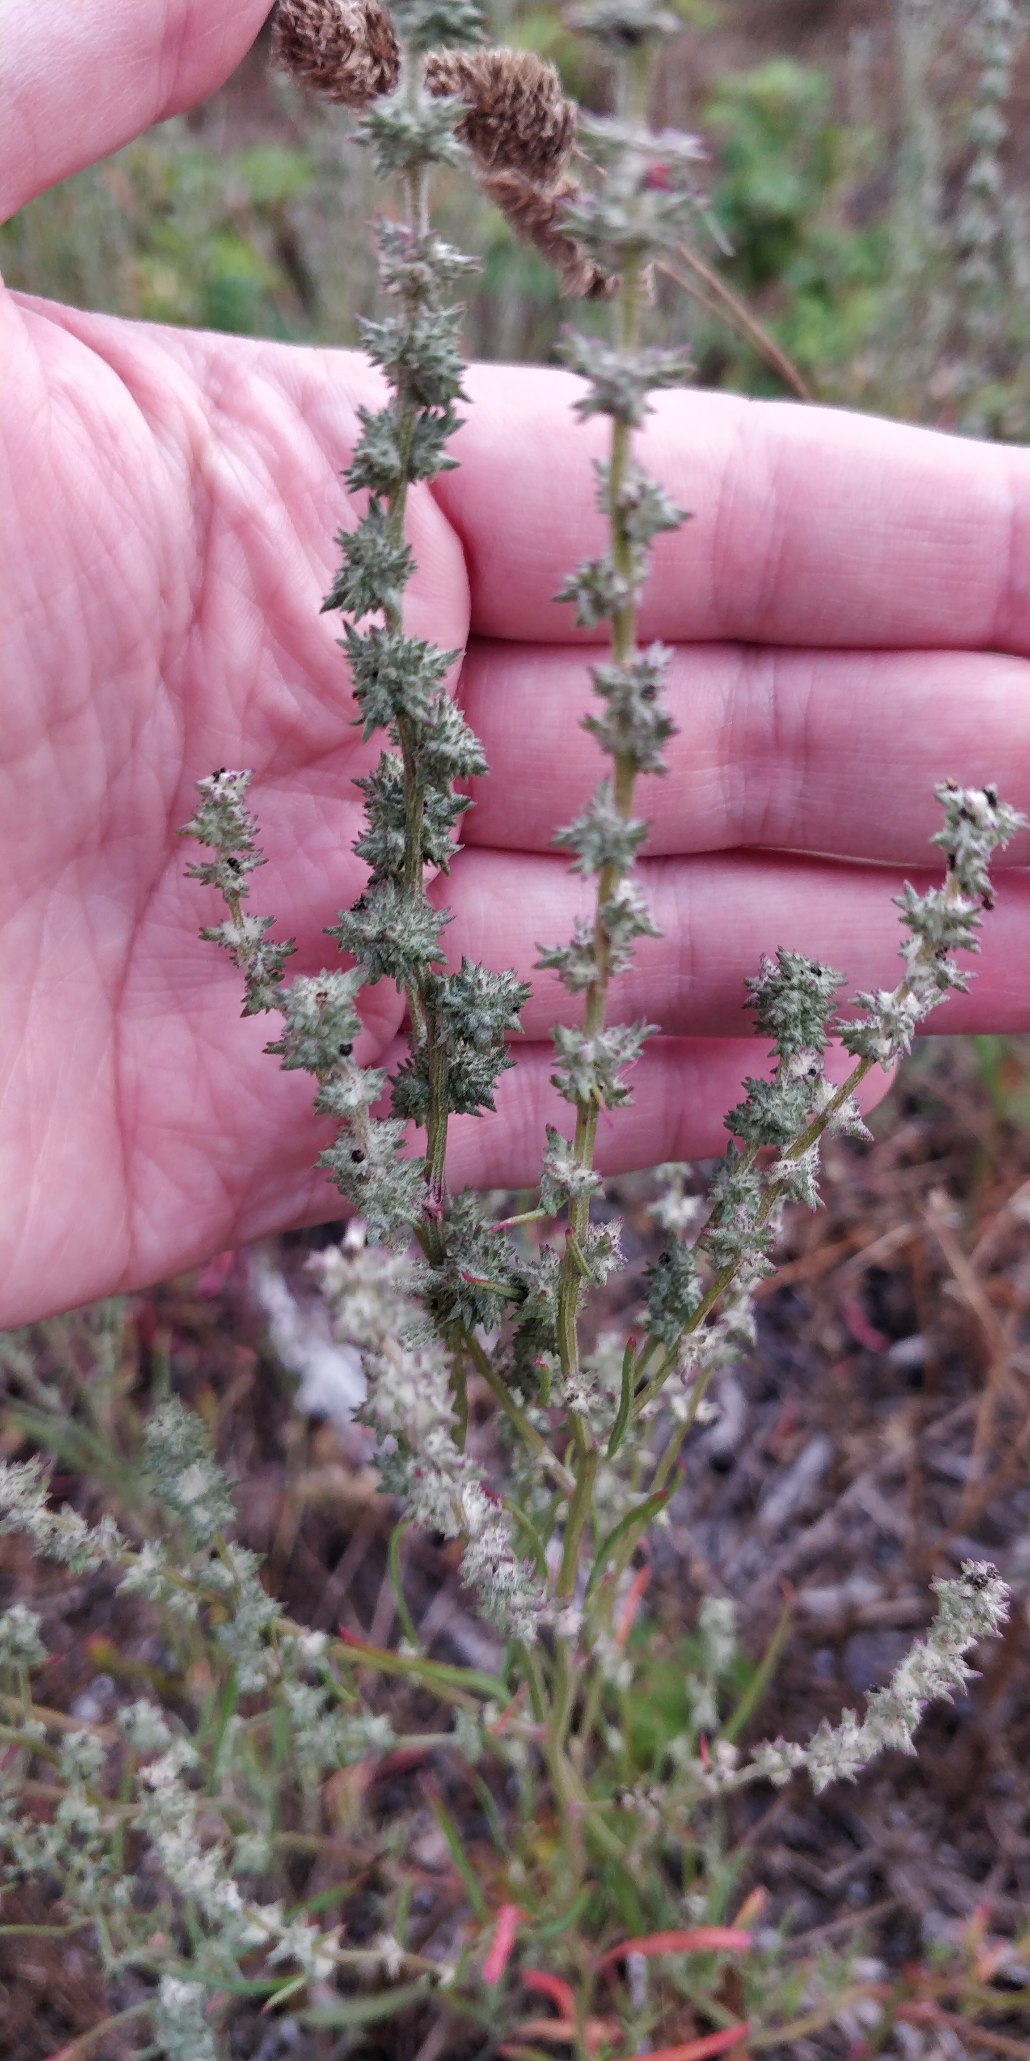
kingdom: Plantae
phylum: Tracheophyta
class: Magnoliopsida
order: Caryophyllales
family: Amaranthaceae
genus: Atriplex
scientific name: Atriplex littoralis
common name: Strand-mælde
